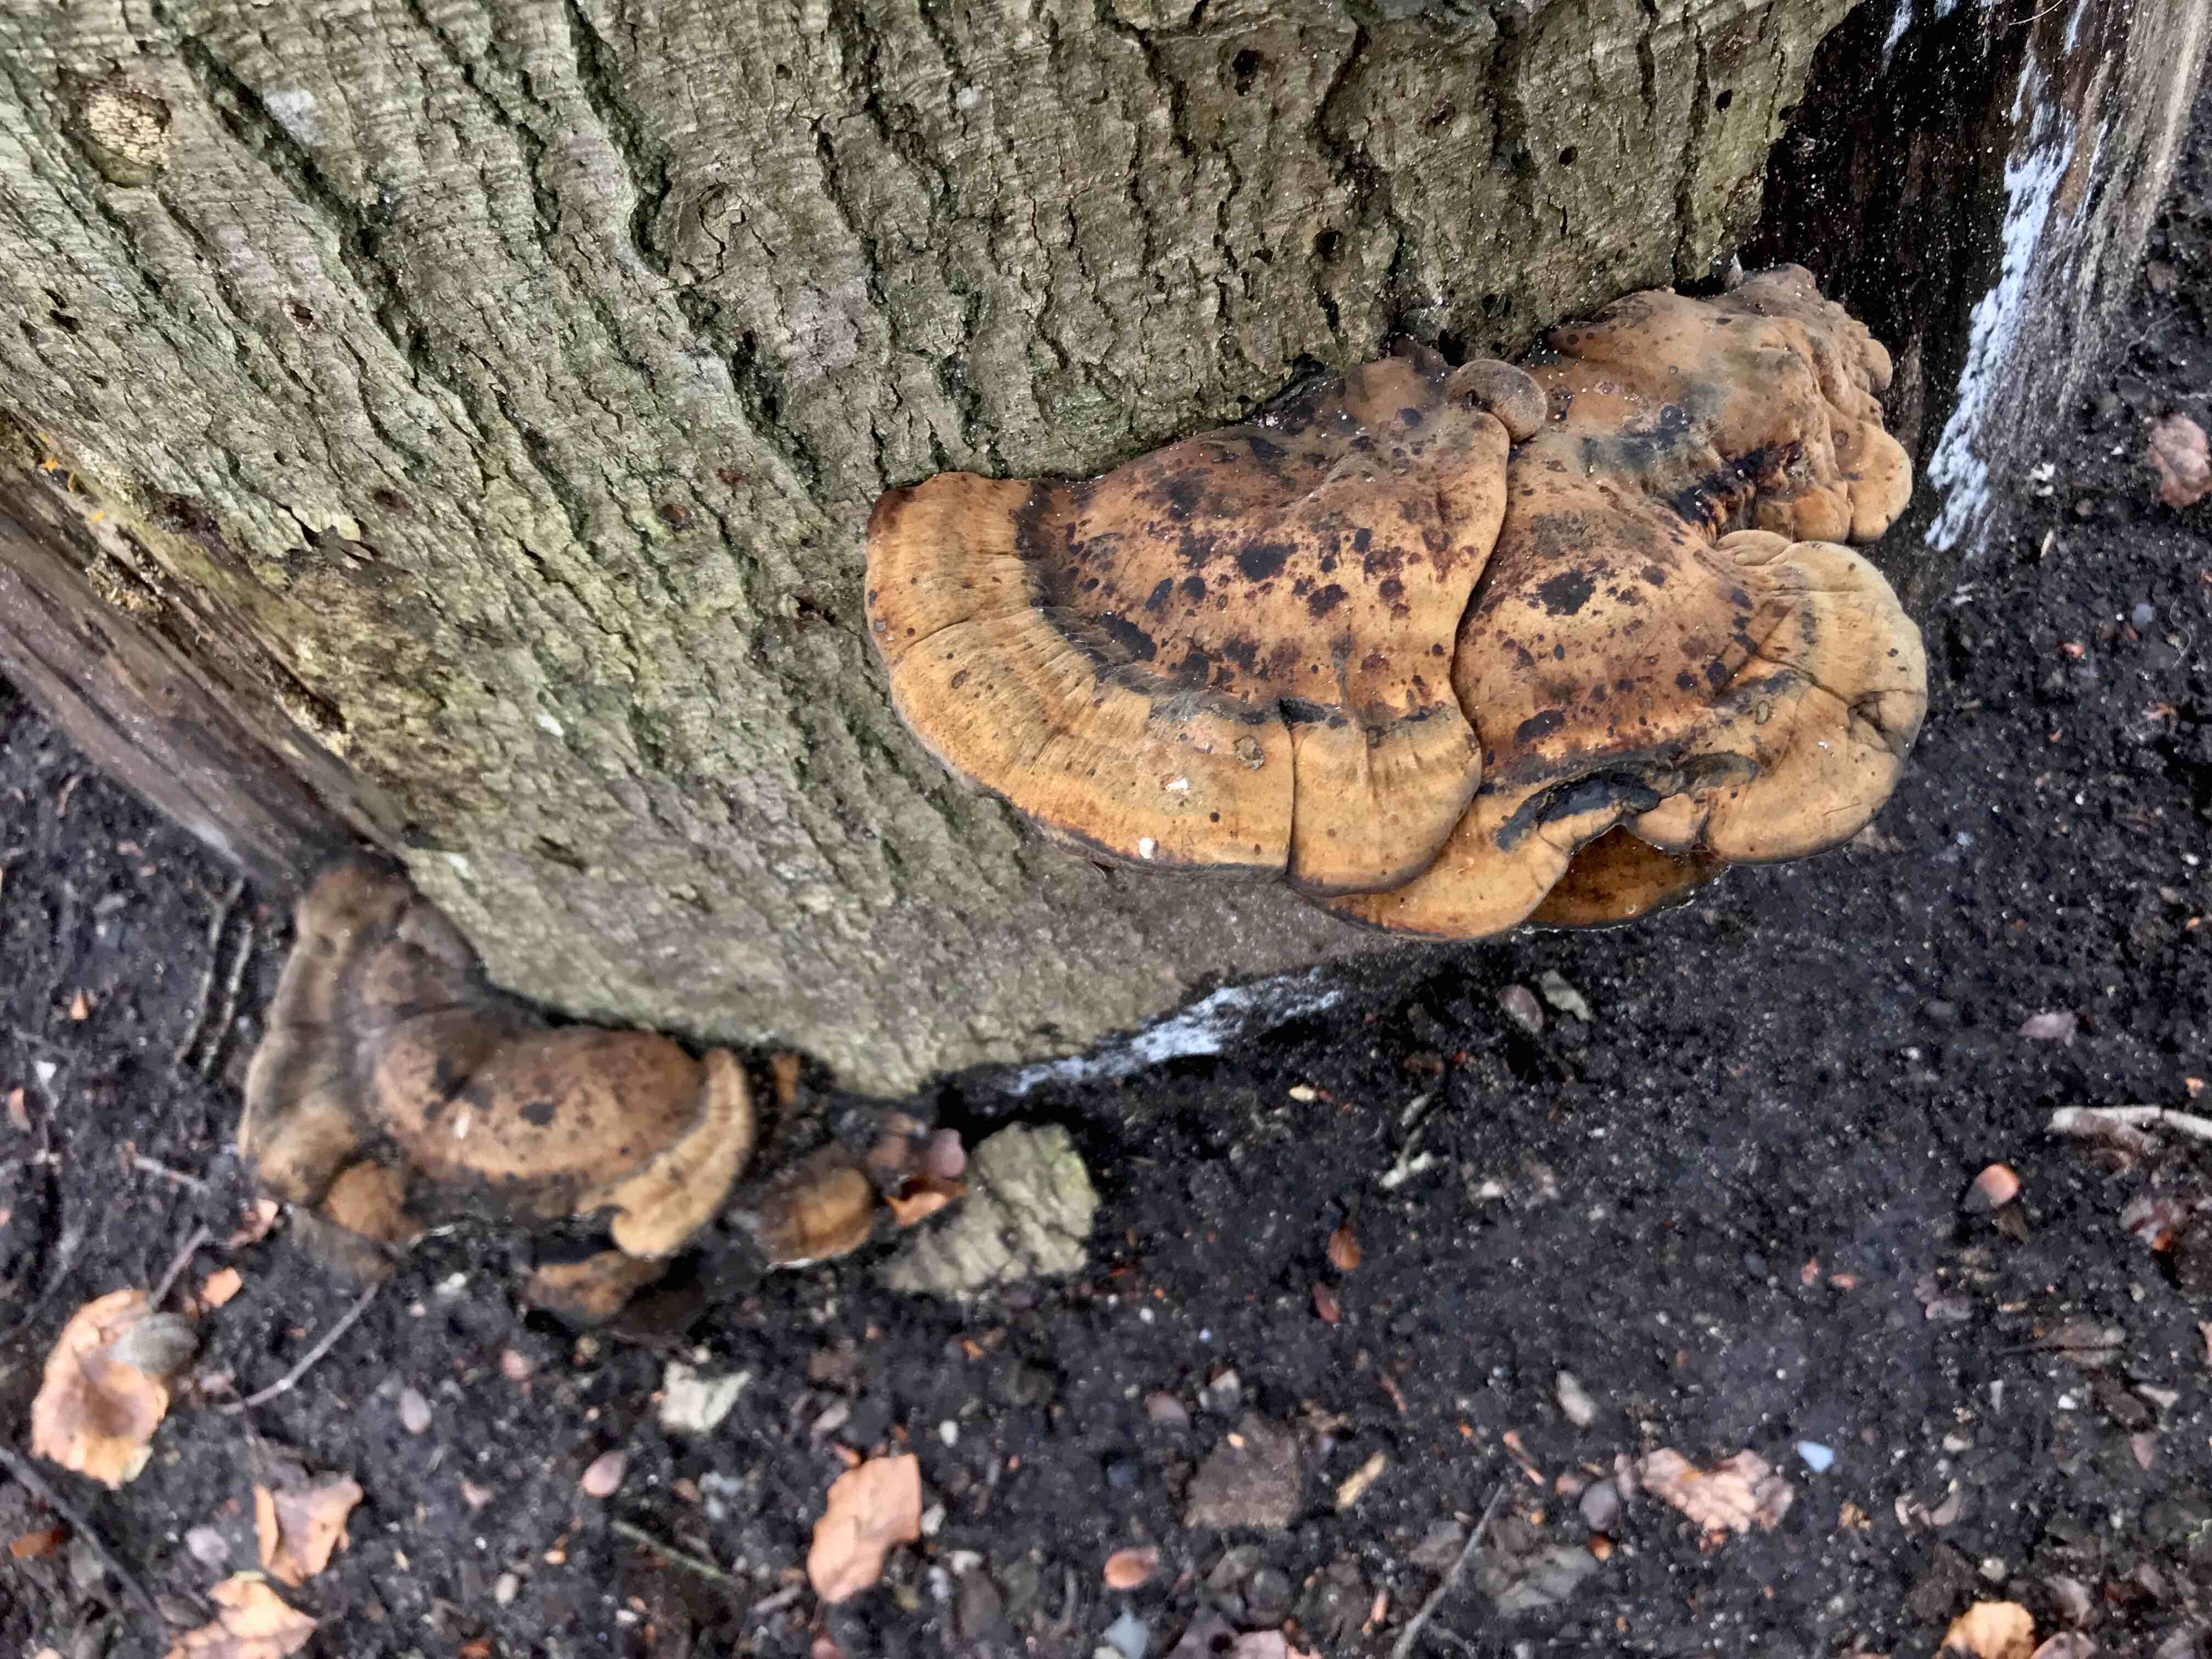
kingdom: Fungi
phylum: Basidiomycota
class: Agaricomycetes
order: Polyporales
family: Ischnodermataceae
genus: Ischnoderma
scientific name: Ischnoderma resinosum
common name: løv-tjæreporesvamp
